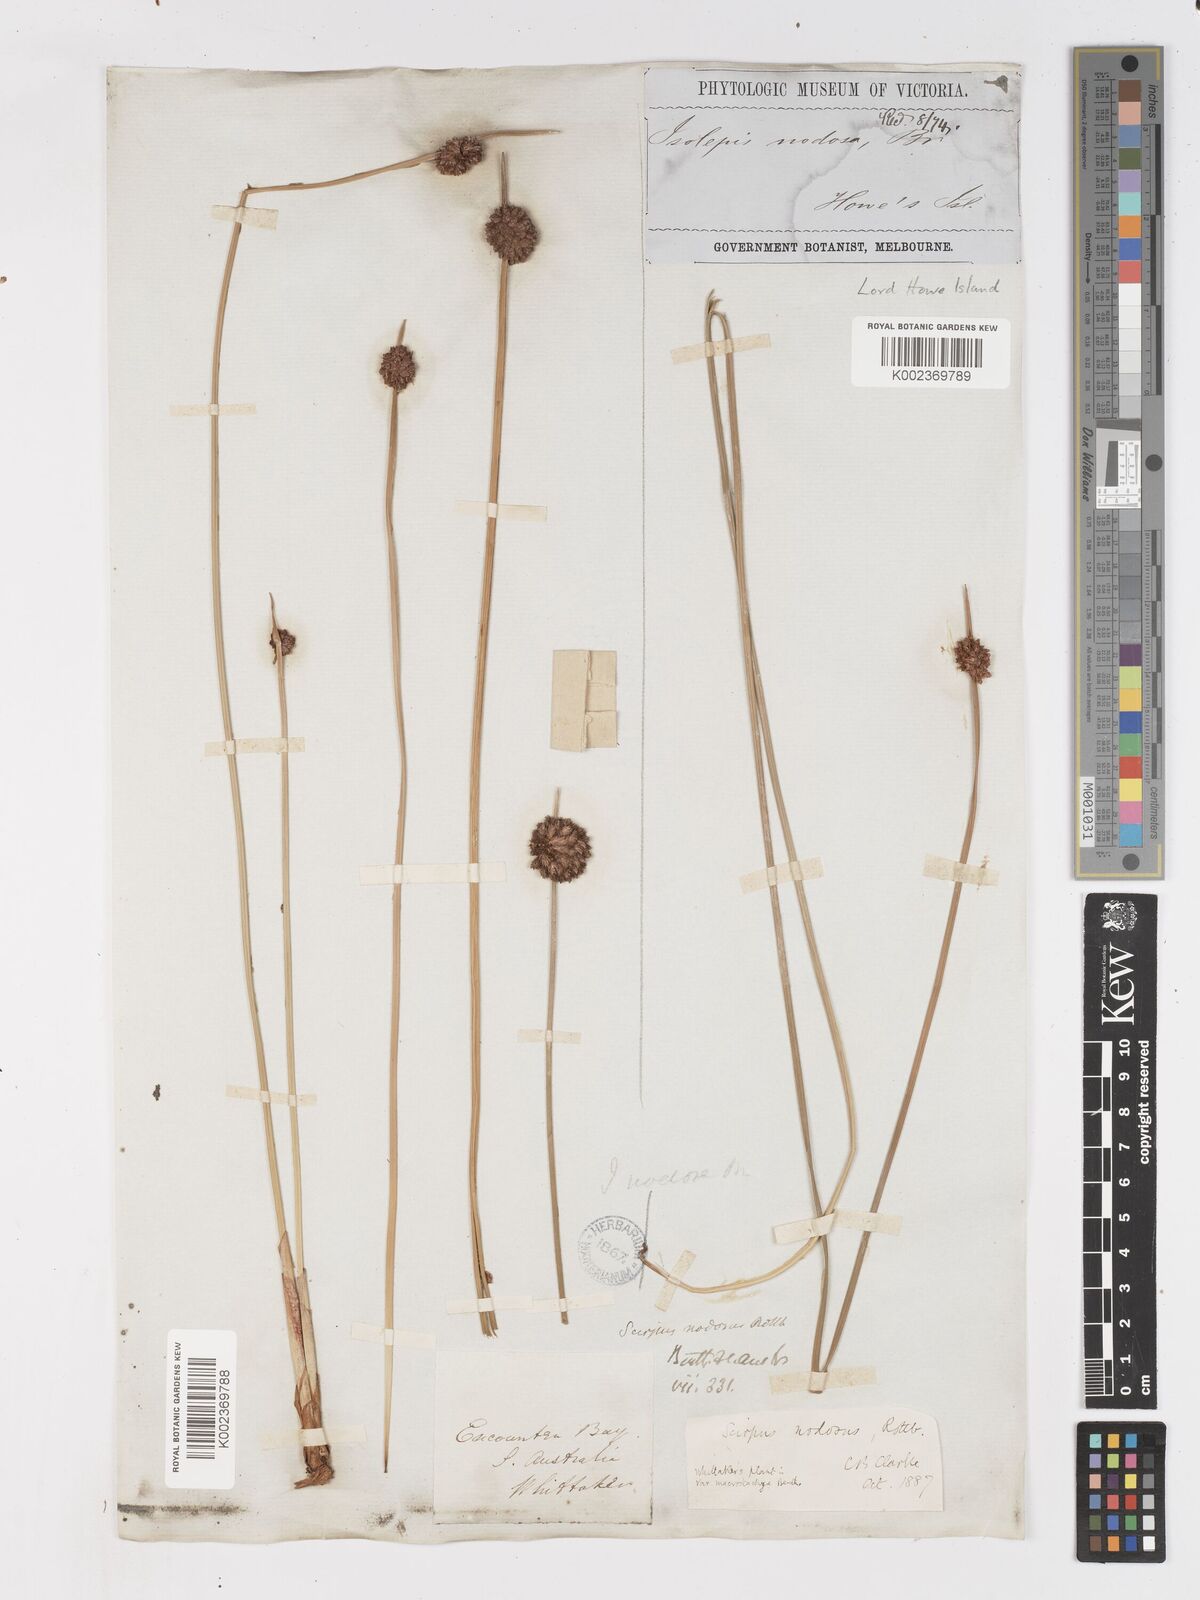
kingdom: Plantae
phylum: Tracheophyta
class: Liliopsida
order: Poales
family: Cyperaceae
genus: Ficinia
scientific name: Ficinia nodosa
